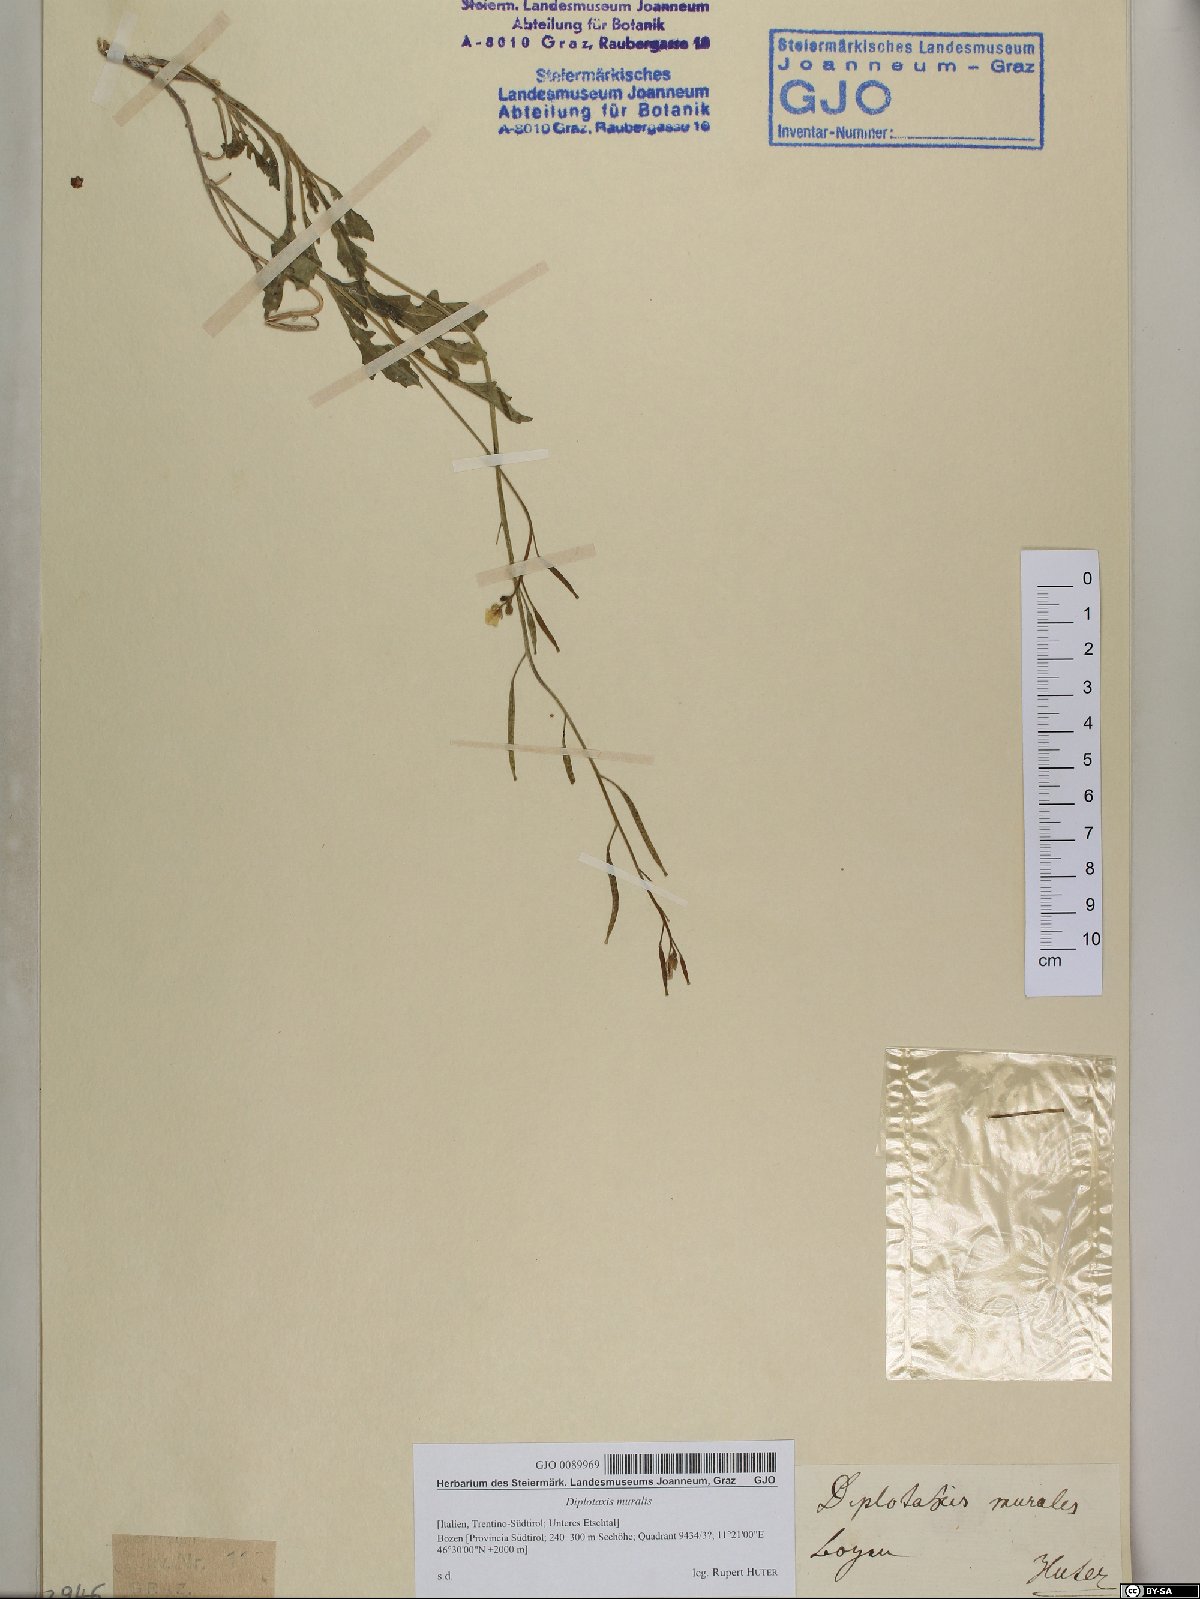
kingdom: Plantae
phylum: Tracheophyta
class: Magnoliopsida
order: Brassicales
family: Brassicaceae
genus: Diplotaxis
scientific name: Diplotaxis muralis
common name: Annual wall-rocket
